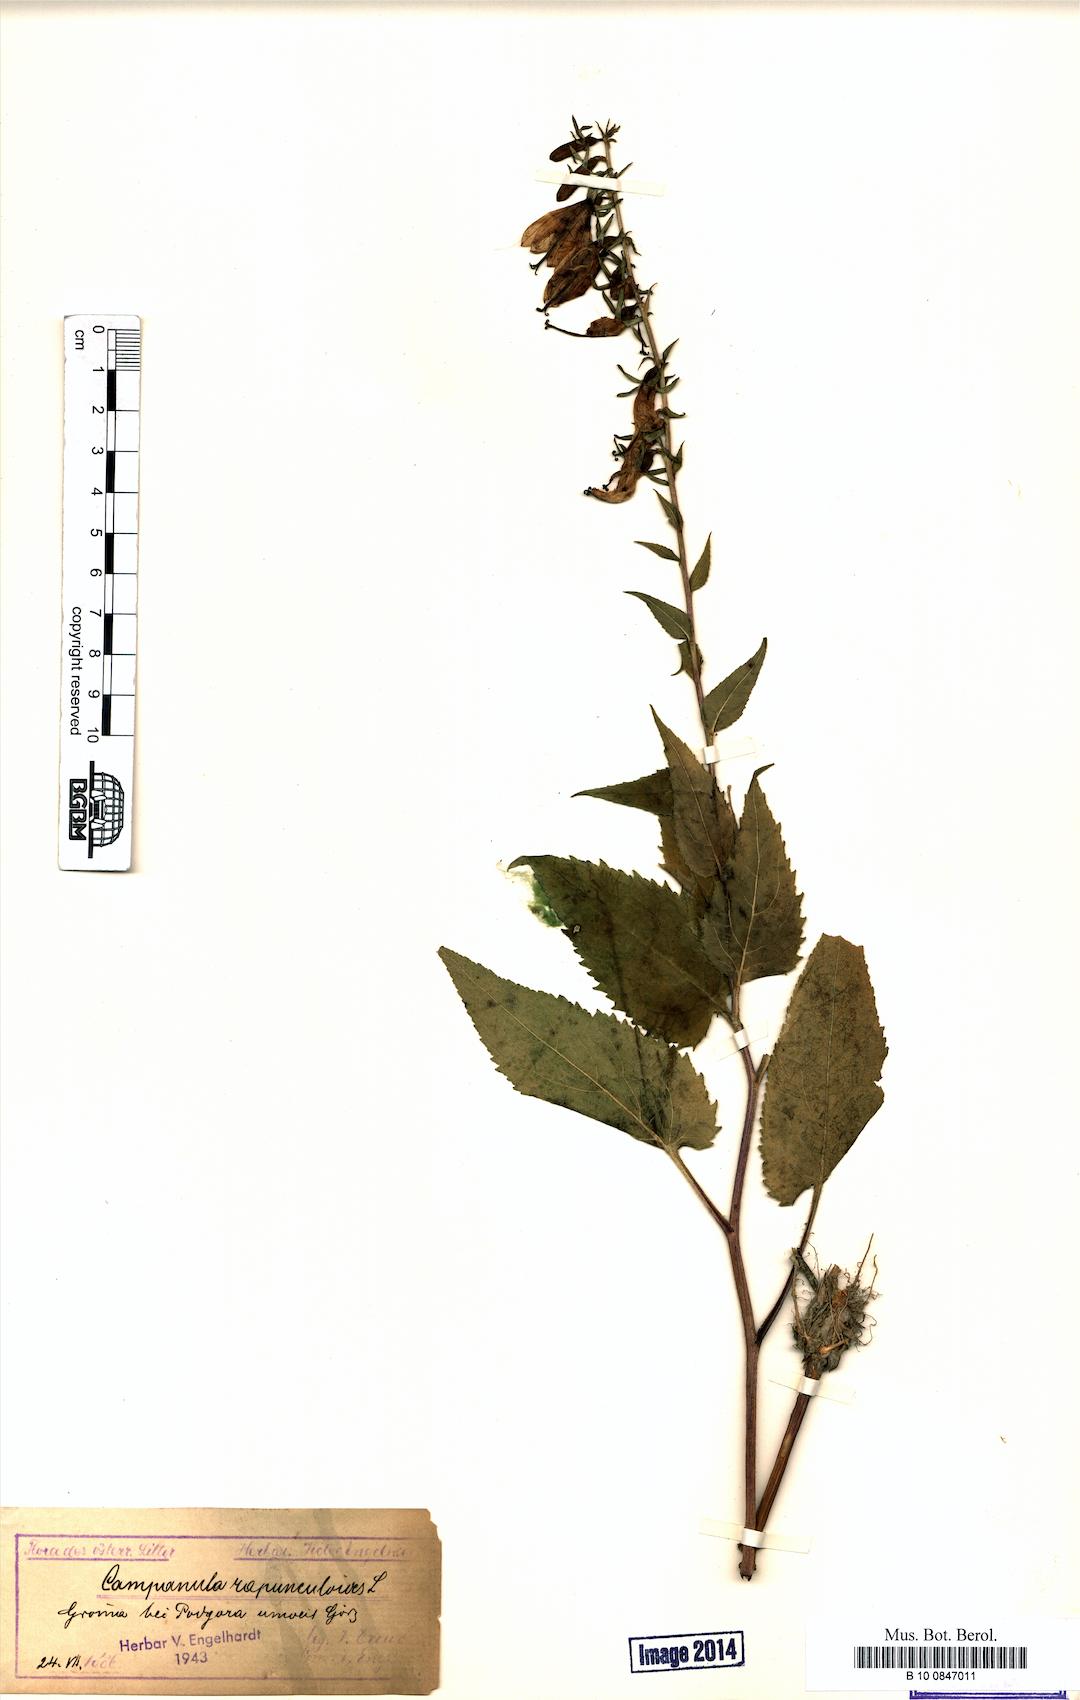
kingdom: Plantae
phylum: Tracheophyta
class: Magnoliopsida
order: Asterales
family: Campanulaceae
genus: Campanula
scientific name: Campanula rapunculoides
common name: Creeping bellflower
